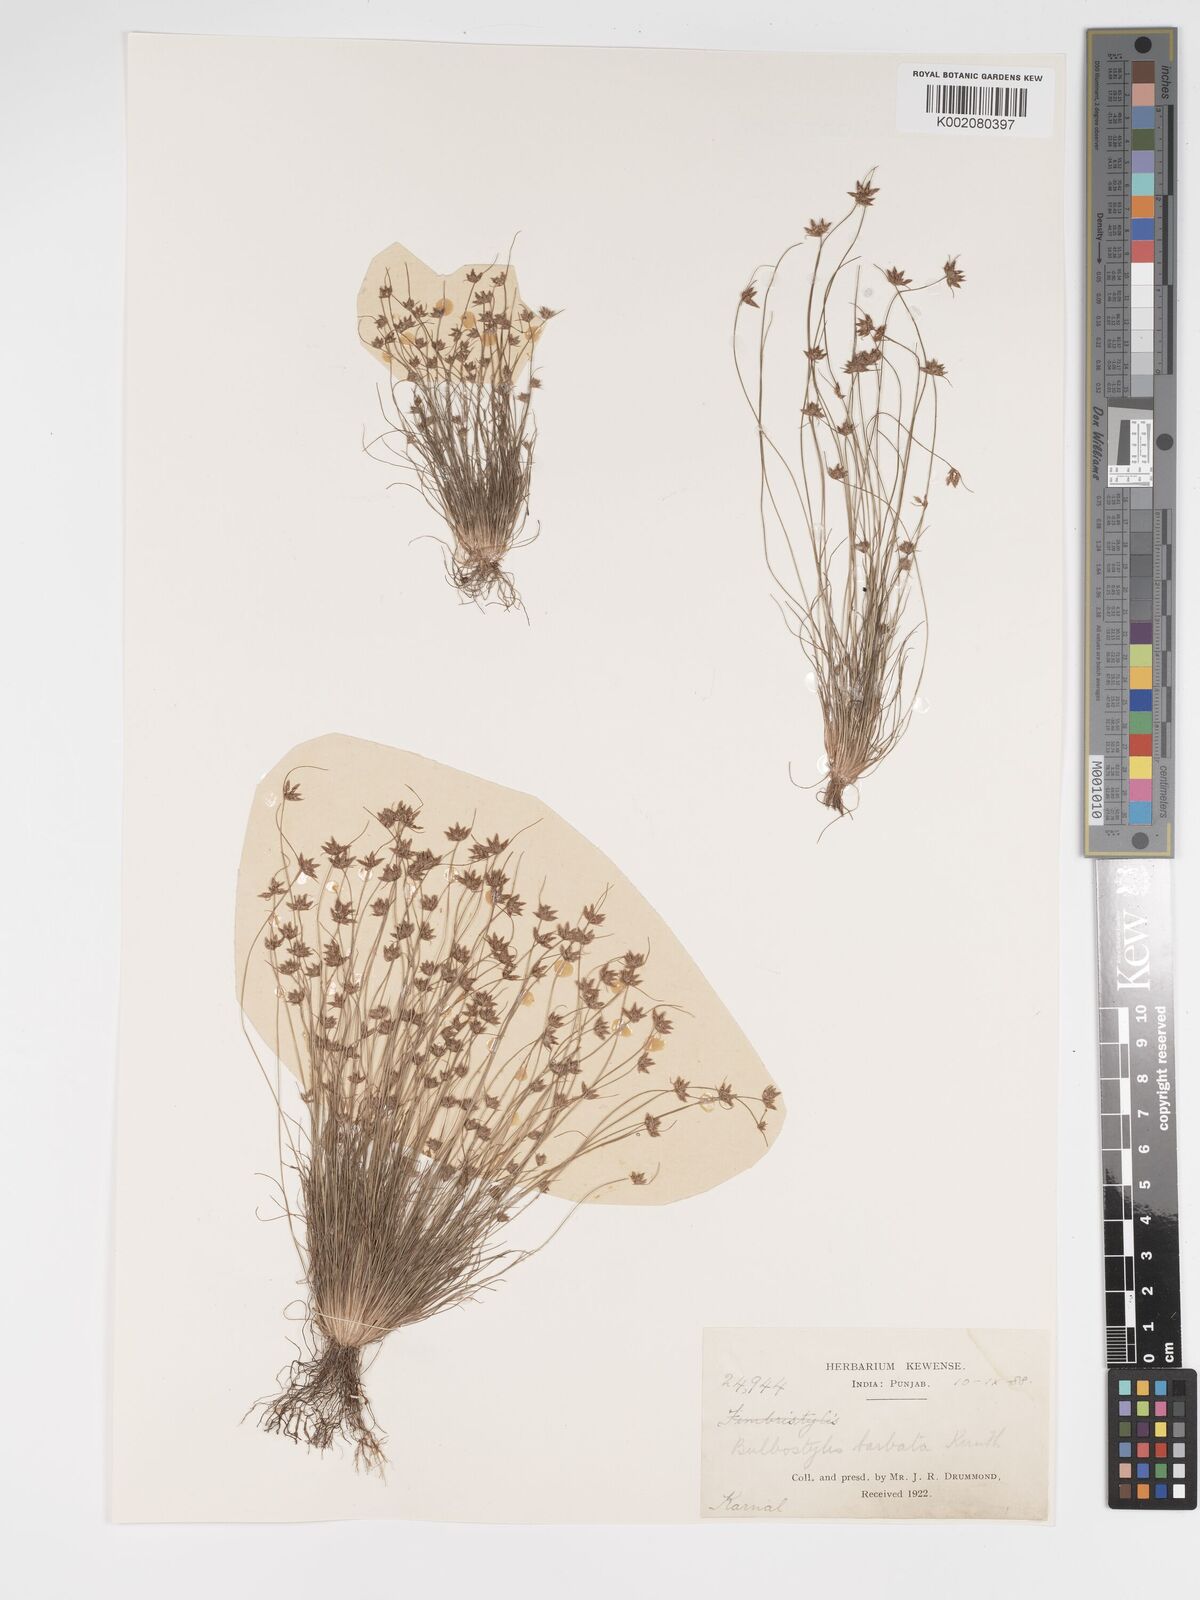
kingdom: Plantae
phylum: Tracheophyta
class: Liliopsida
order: Poales
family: Cyperaceae
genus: Bulbostylis
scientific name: Bulbostylis barbata
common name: Watergrass
